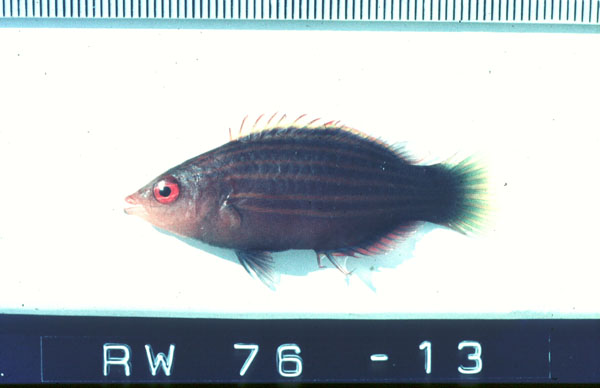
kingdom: Animalia
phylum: Chordata
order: Perciformes
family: Labridae
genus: Pseudocheilinus
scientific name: Pseudocheilinus hexataenia
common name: Sixline wrasse
